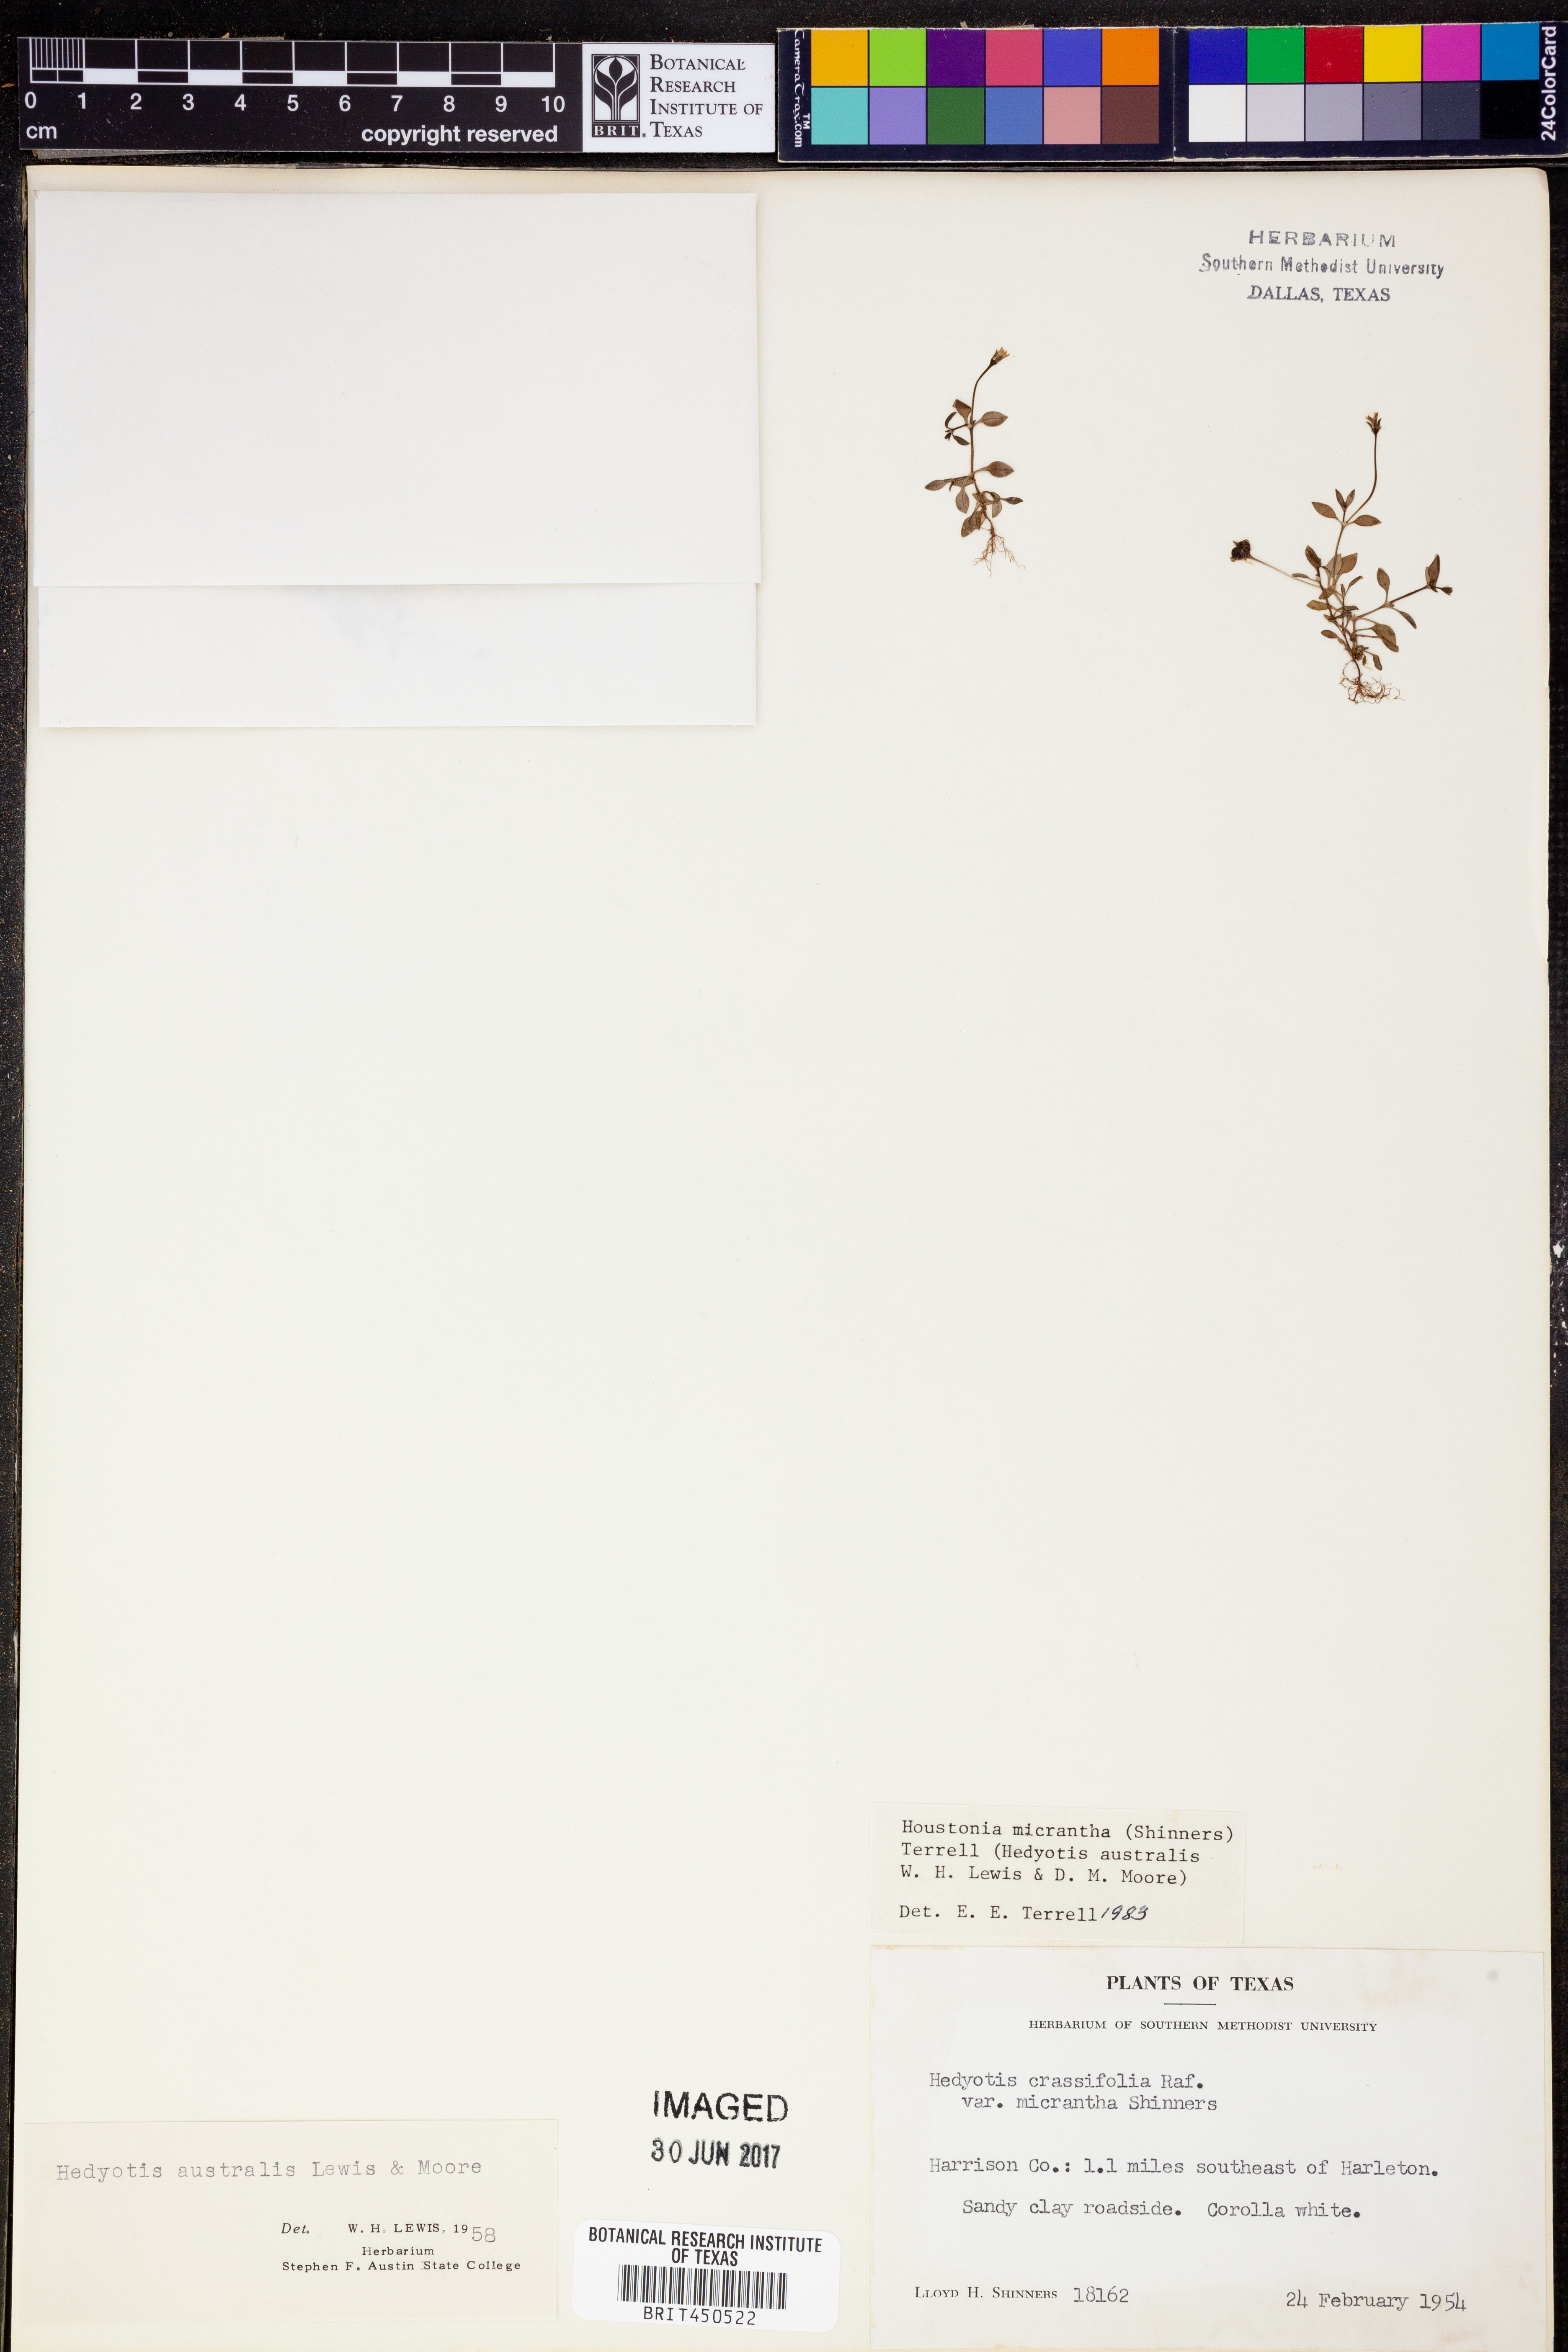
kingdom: Plantae
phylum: Tracheophyta
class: Magnoliopsida
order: Gentianales
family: Rubiaceae
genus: Houstonia
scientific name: Houstonia micrantha
